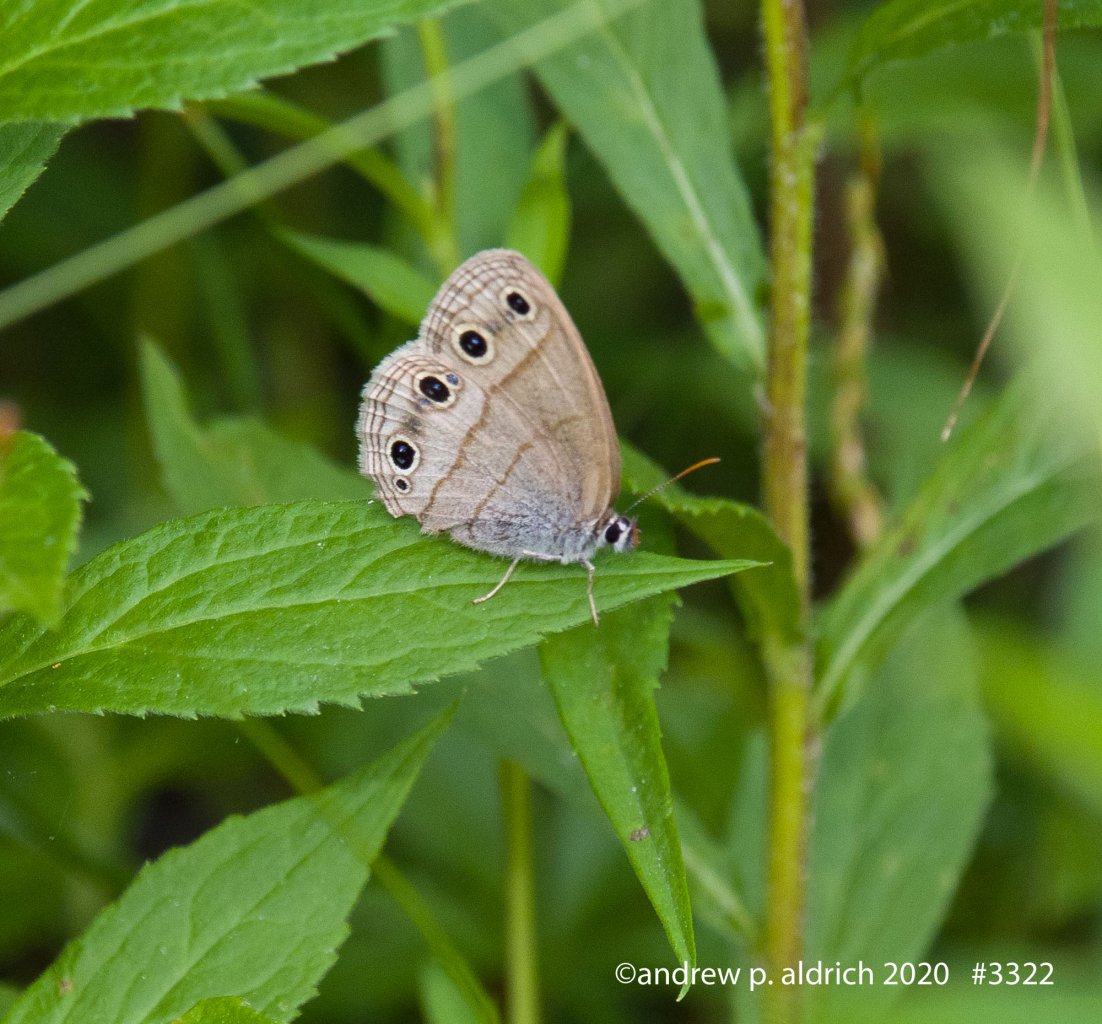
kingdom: Animalia
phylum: Arthropoda
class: Insecta
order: Lepidoptera
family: Nymphalidae
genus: Euptychia
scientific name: Euptychia cymela
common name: Little Wood Satyr
